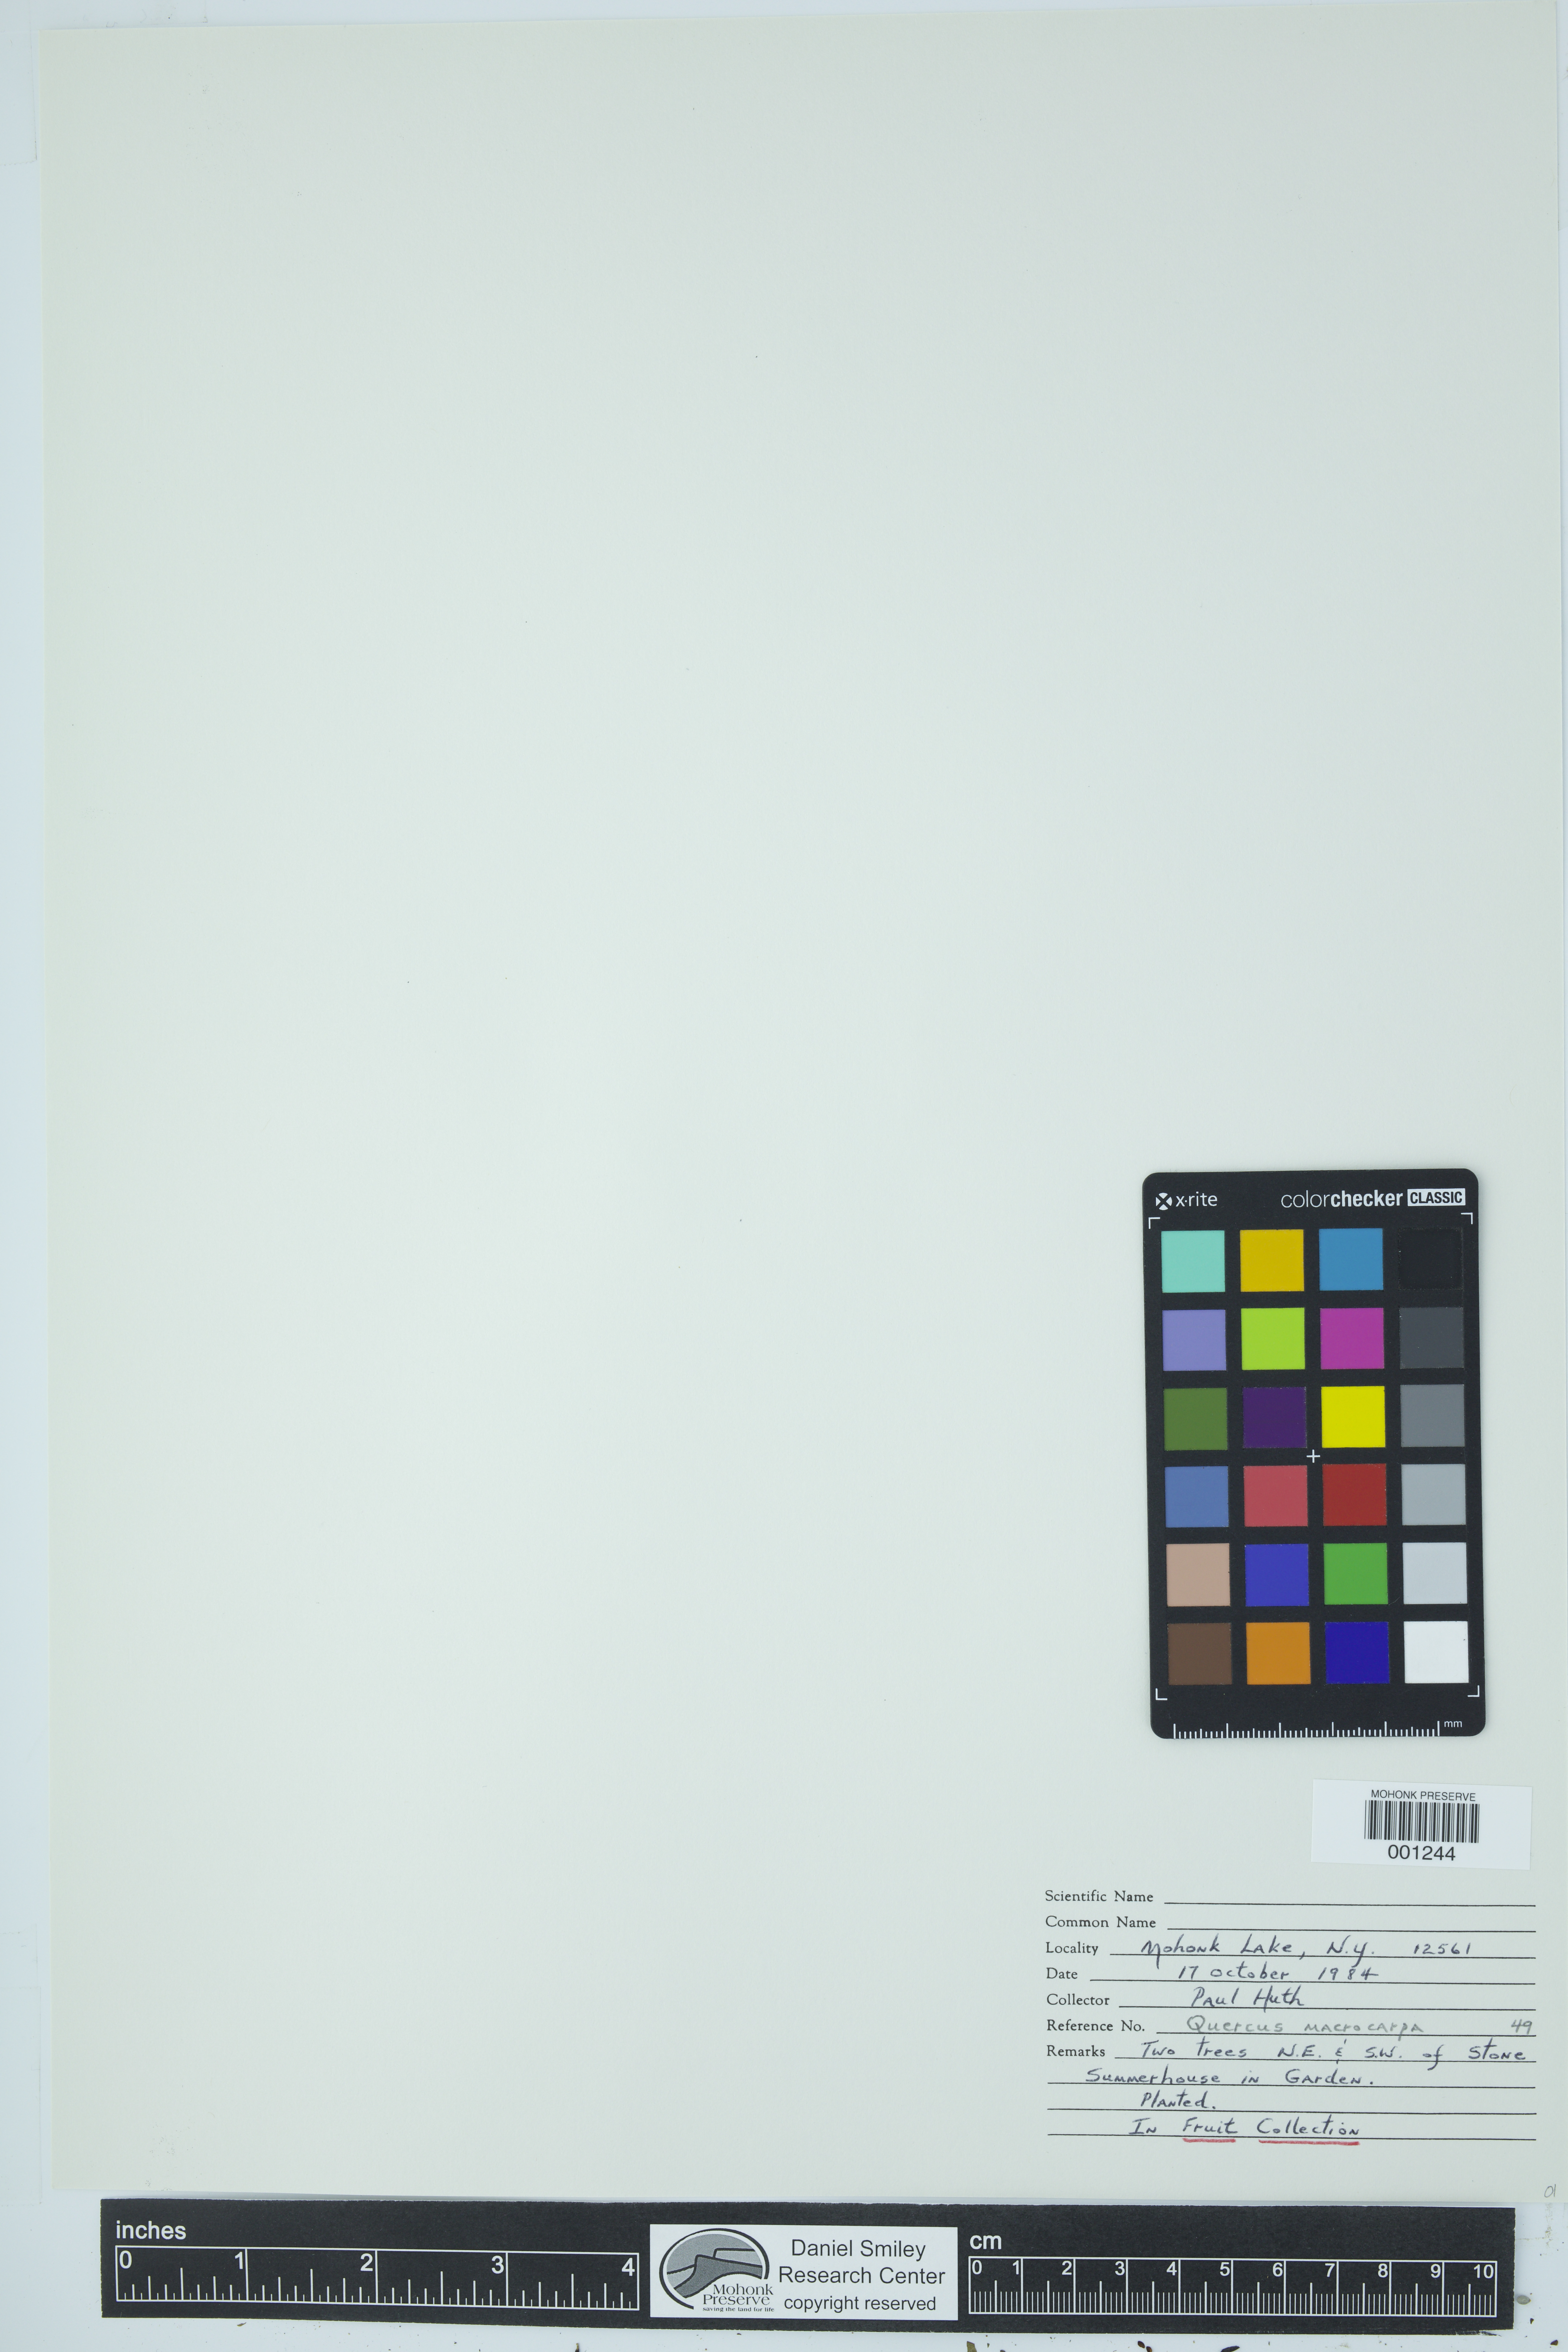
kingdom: Plantae
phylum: Tracheophyta
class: Magnoliopsida
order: Fagales
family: Fagaceae
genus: Quercus
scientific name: Quercus macrocarpa
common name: Bur oak
